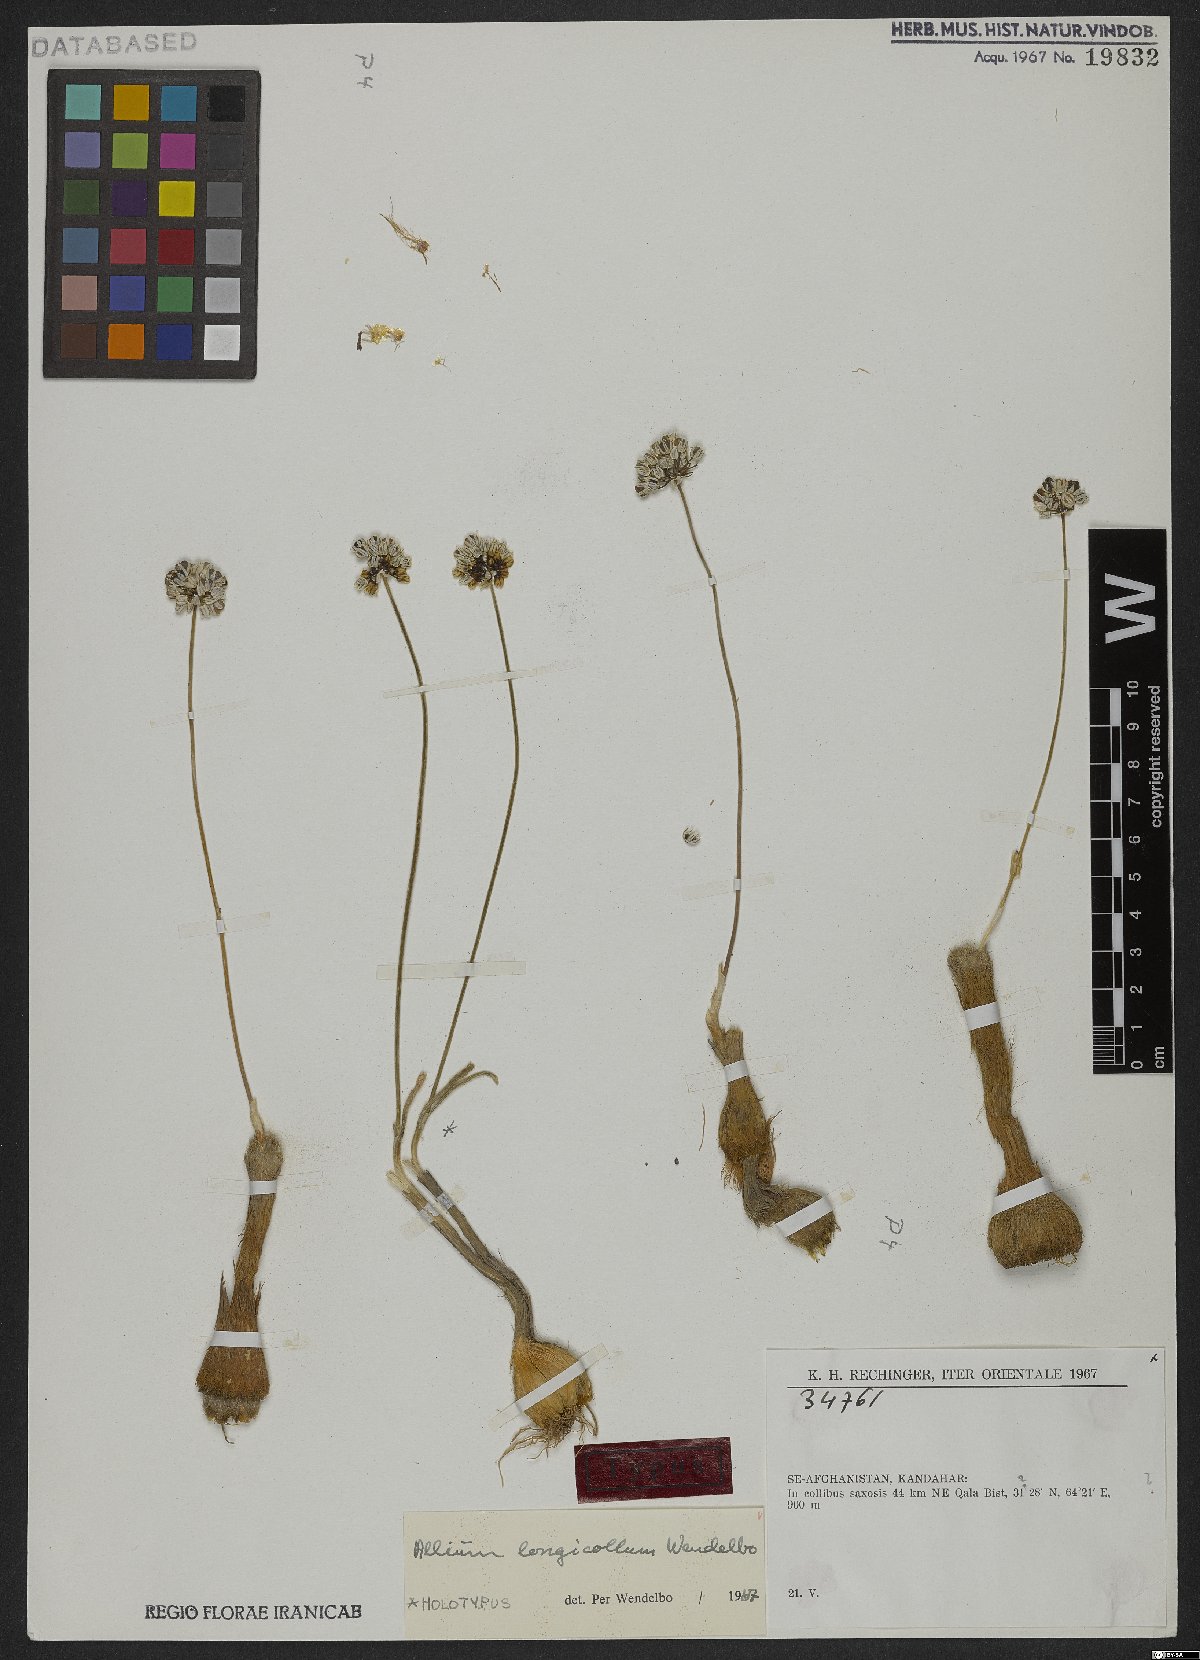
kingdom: Plantae
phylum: Tracheophyta
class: Liliopsida
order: Asparagales
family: Amaryllidaceae
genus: Allium
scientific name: Allium longicollum
